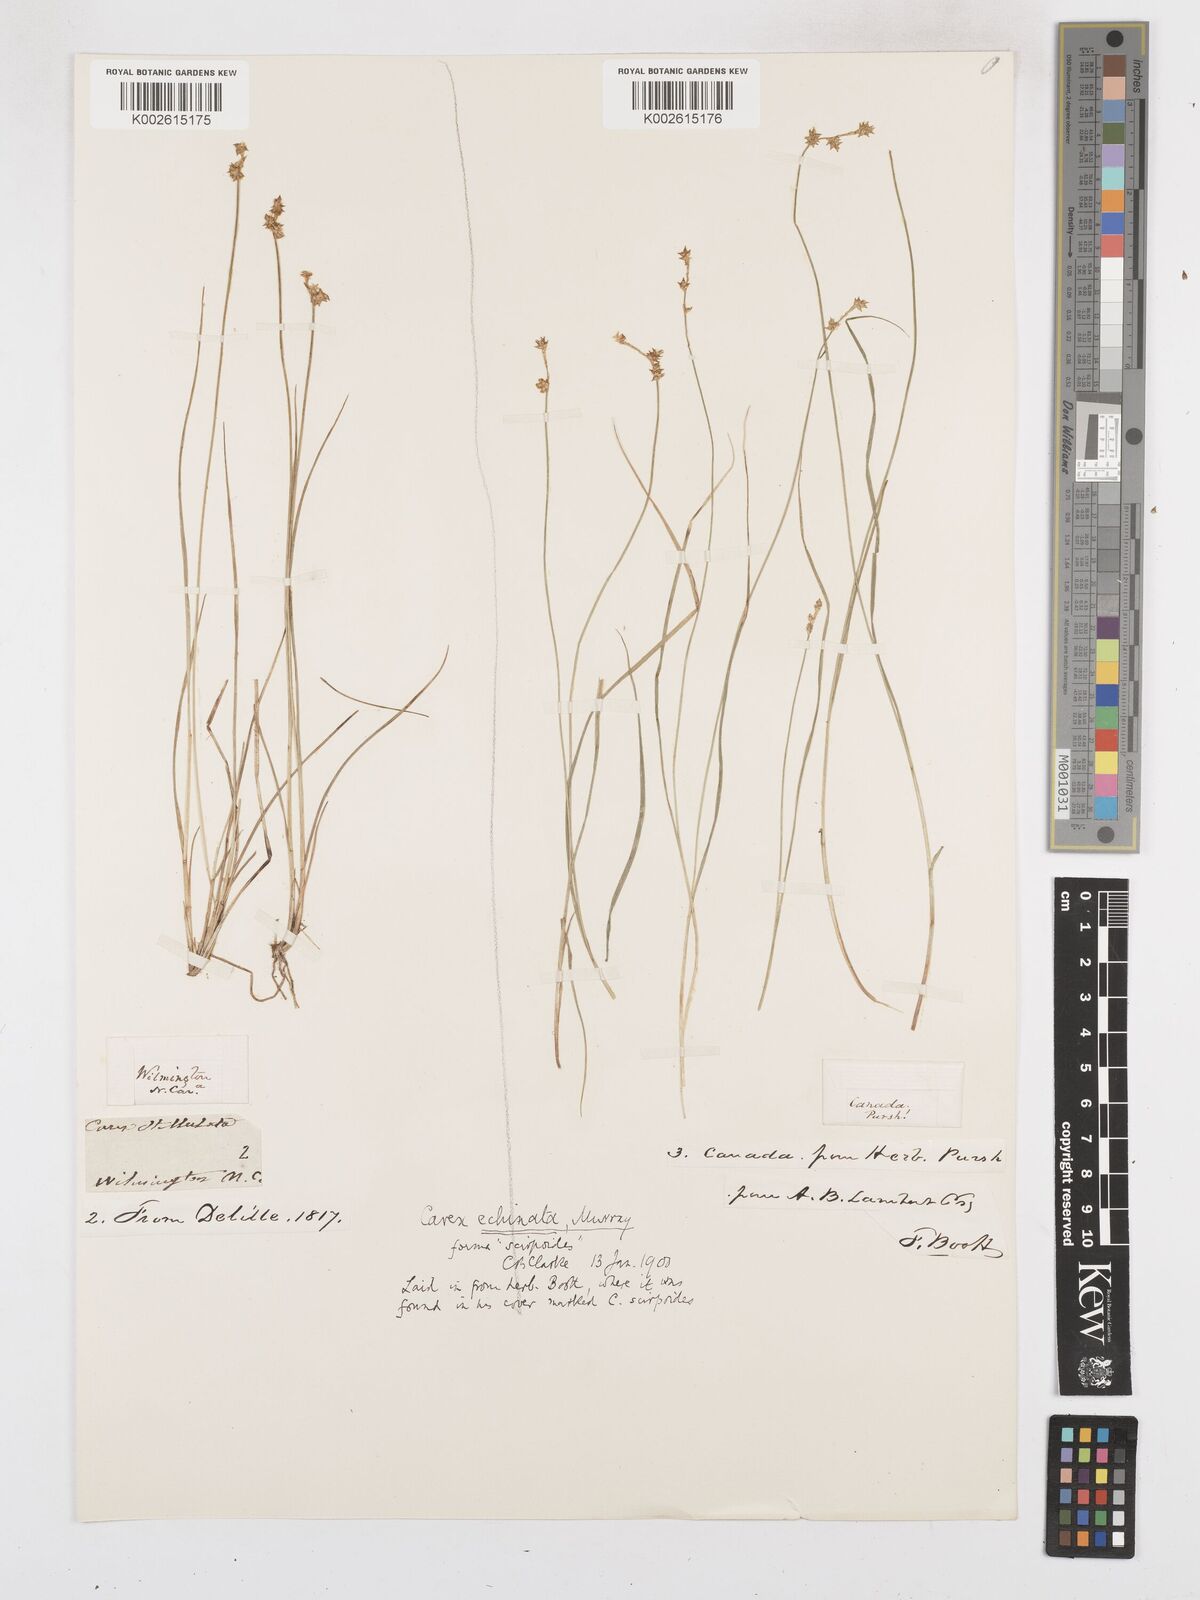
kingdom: Plantae
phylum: Tracheophyta
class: Liliopsida
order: Poales
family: Cyperaceae
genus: Carex
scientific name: Carex echinata
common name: Star sedge
